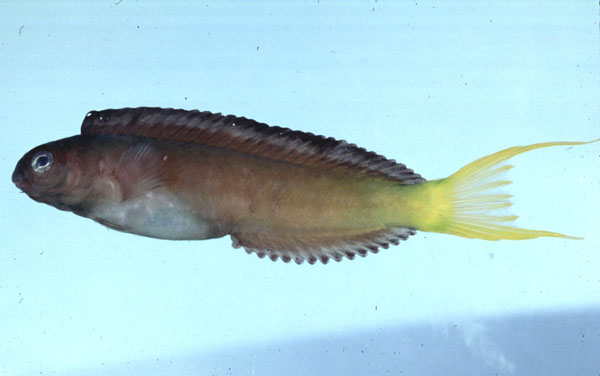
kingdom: Animalia
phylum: Chordata
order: Perciformes
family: Blenniidae
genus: Meiacanthus
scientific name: Meiacanthus mossambicus
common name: Mozambique fangblenny
